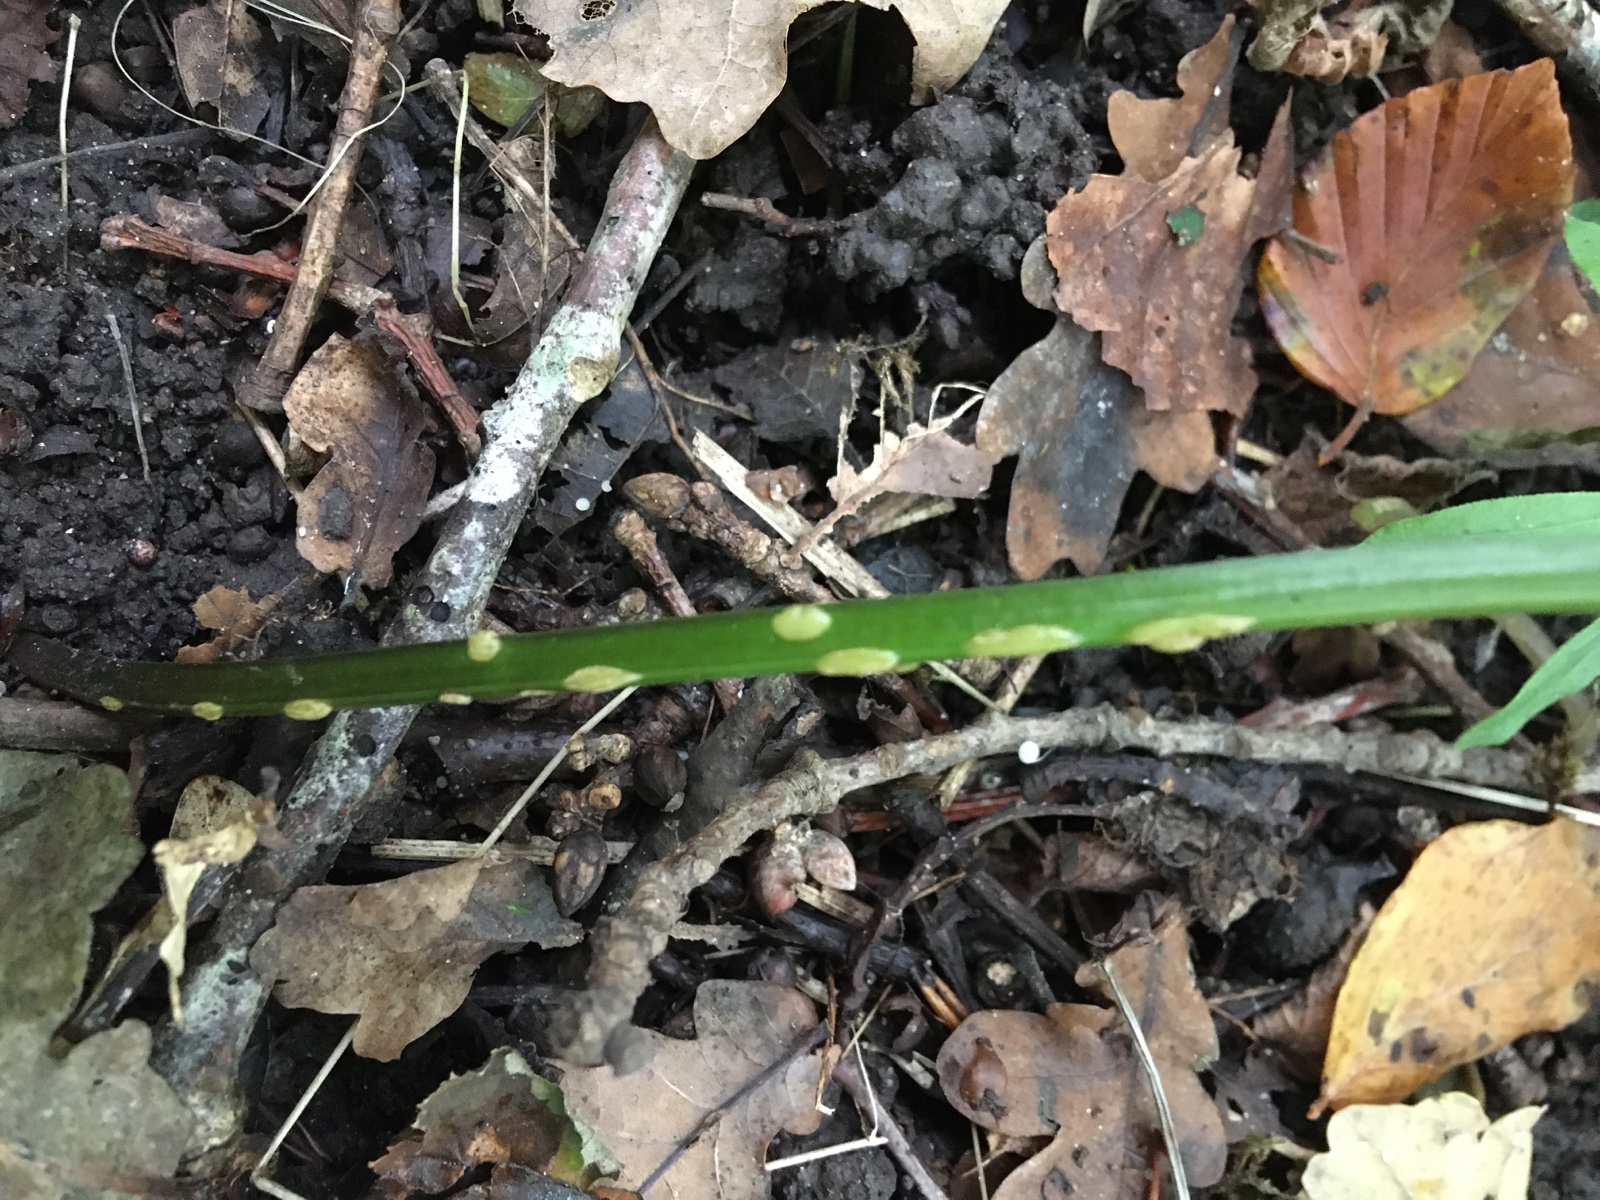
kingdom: Fungi
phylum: Ascomycota
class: Taphrinomycetes
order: Taphrinales
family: Taphrinaceae
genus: Protomyces
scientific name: Protomyces macrosporus
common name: skvalderkål-vablesæk
